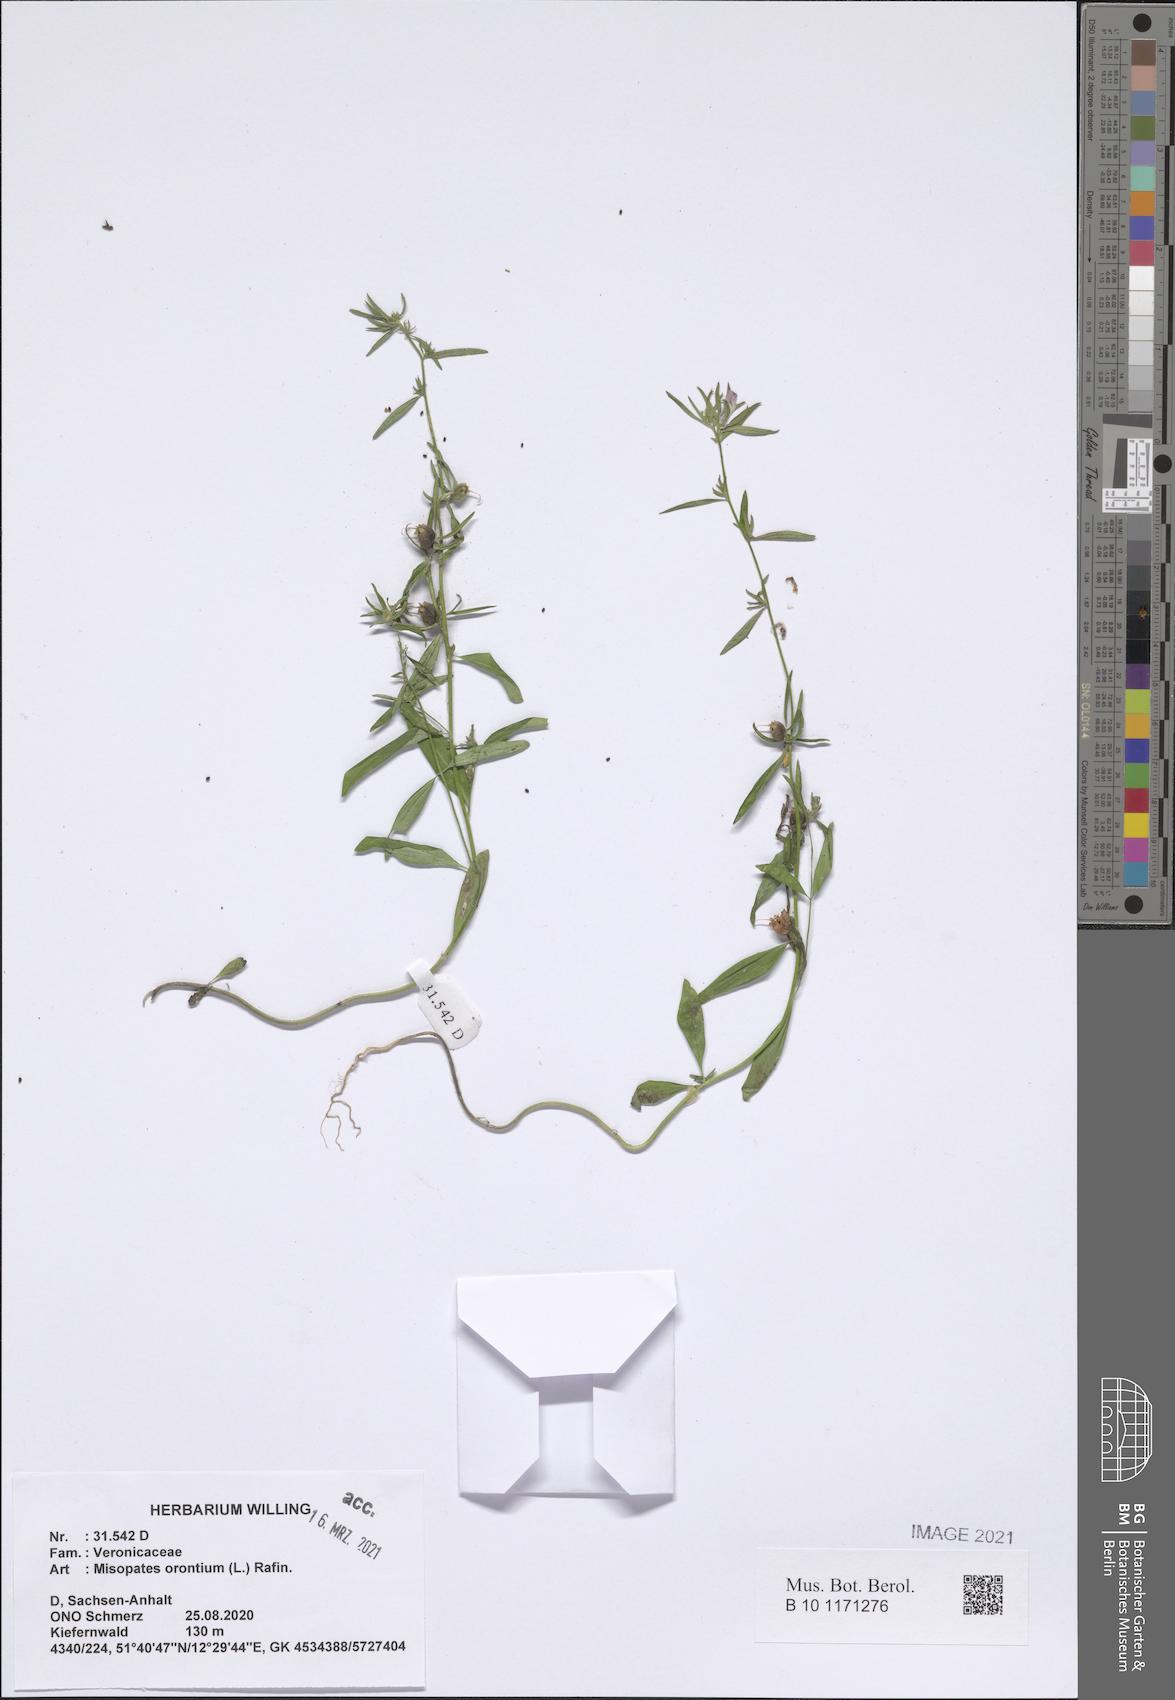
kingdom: Plantae
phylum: Tracheophyta
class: Magnoliopsida
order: Lamiales
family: Plantaginaceae
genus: Misopates
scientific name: Misopates orontium
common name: Weasel's-snout
